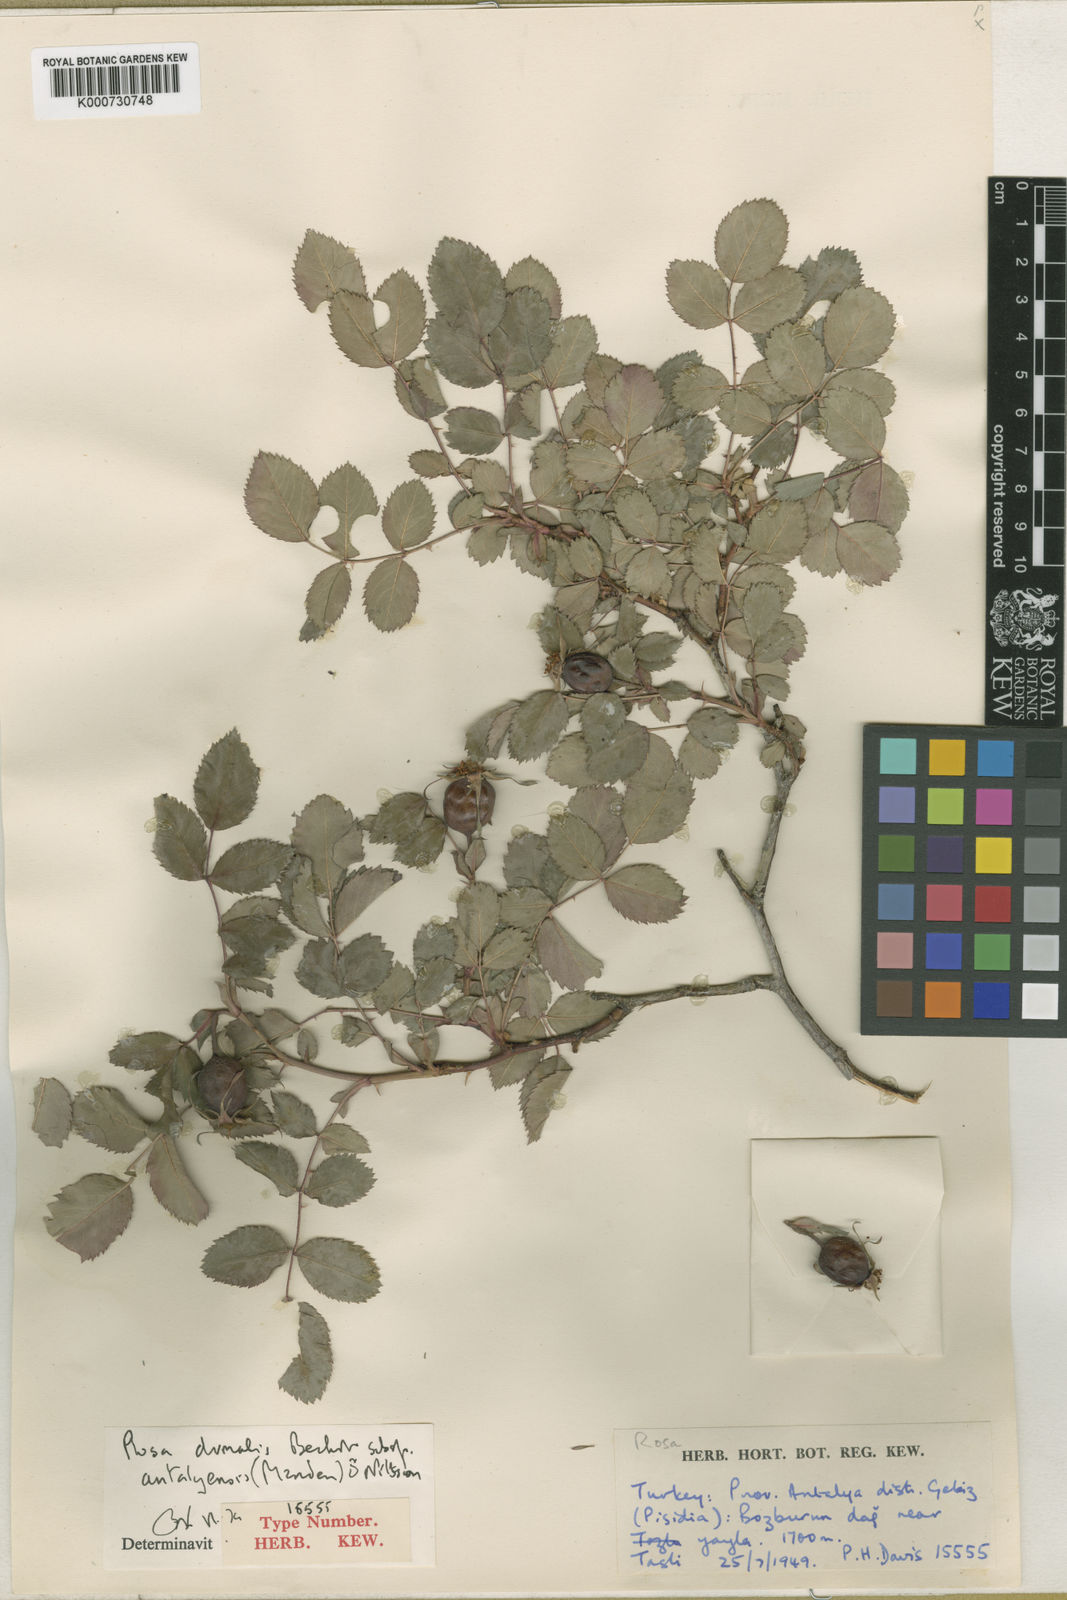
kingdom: Plantae
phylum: Tracheophyta
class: Magnoliopsida
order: Rosales
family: Rosaceae
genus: Rosa
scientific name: Rosa dumalis
